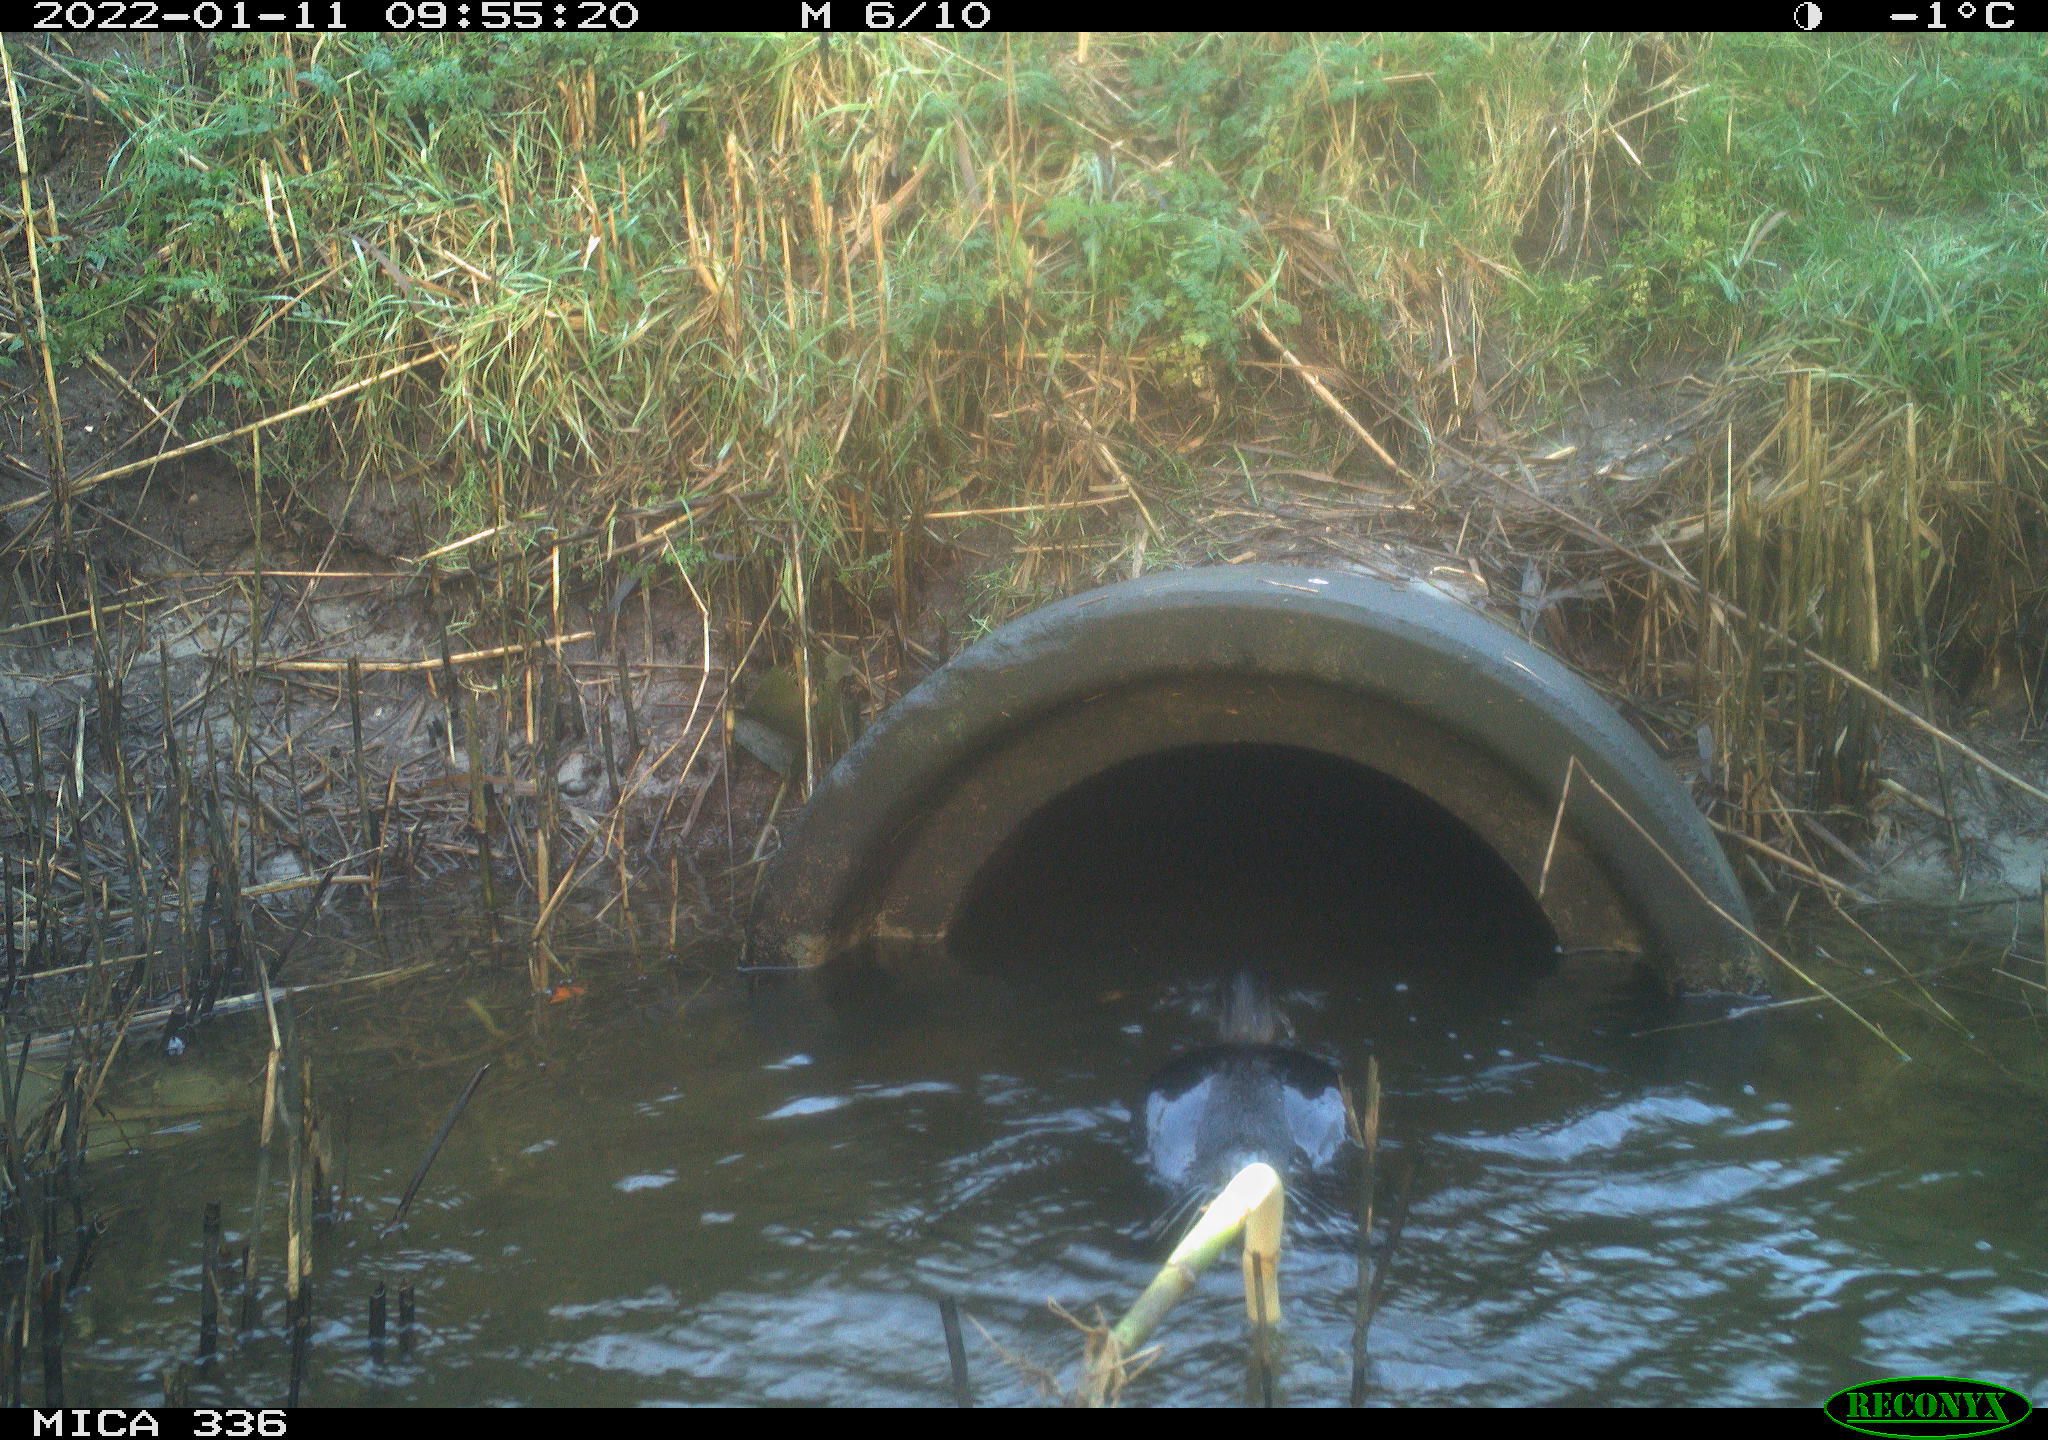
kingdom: Animalia
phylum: Chordata
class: Aves
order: Suliformes
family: Phalacrocoracidae
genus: Phalacrocorax
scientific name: Phalacrocorax carbo
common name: Great cormorant
